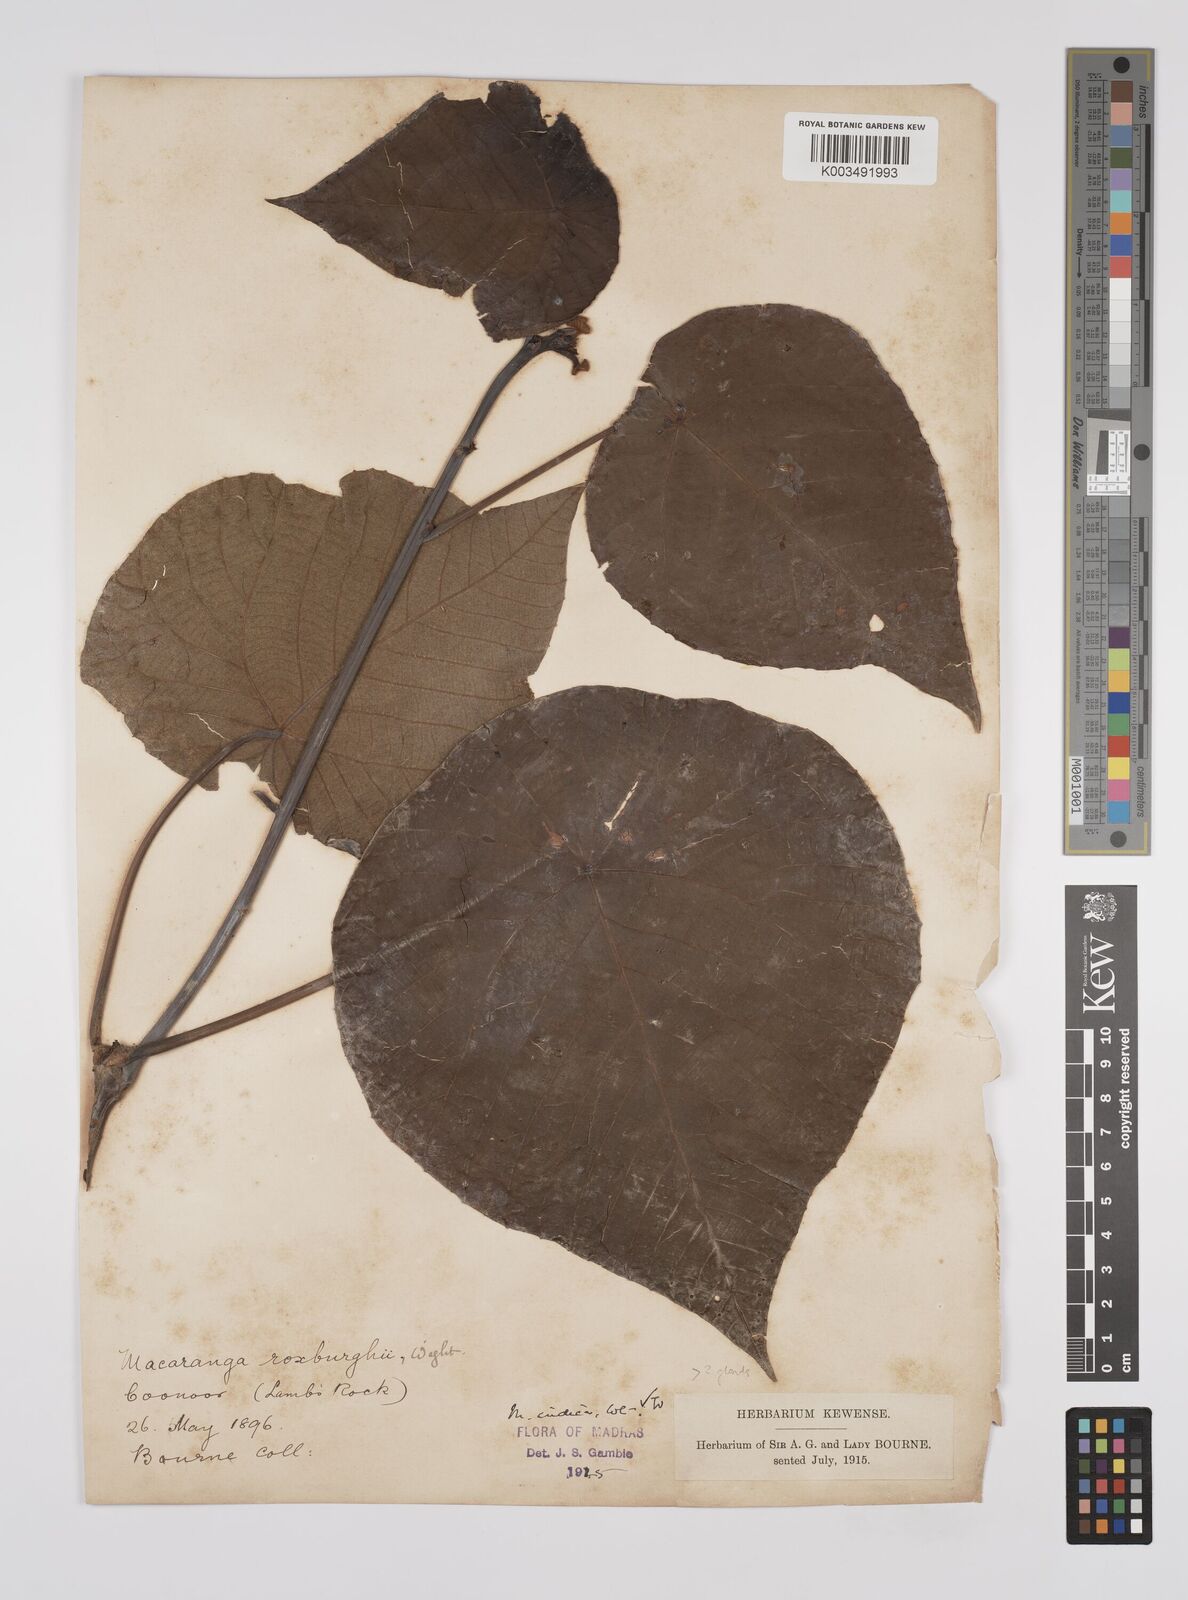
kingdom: Plantae
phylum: Tracheophyta
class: Magnoliopsida
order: Malpighiales
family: Euphorbiaceae
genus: Macaranga
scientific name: Macaranga indica
